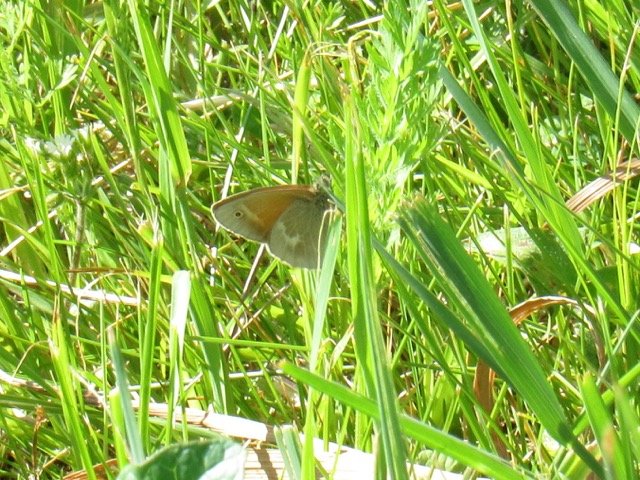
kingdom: Animalia
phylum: Arthropoda
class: Insecta
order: Lepidoptera
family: Nymphalidae
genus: Coenonympha
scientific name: Coenonympha tullia
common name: Large Heath
